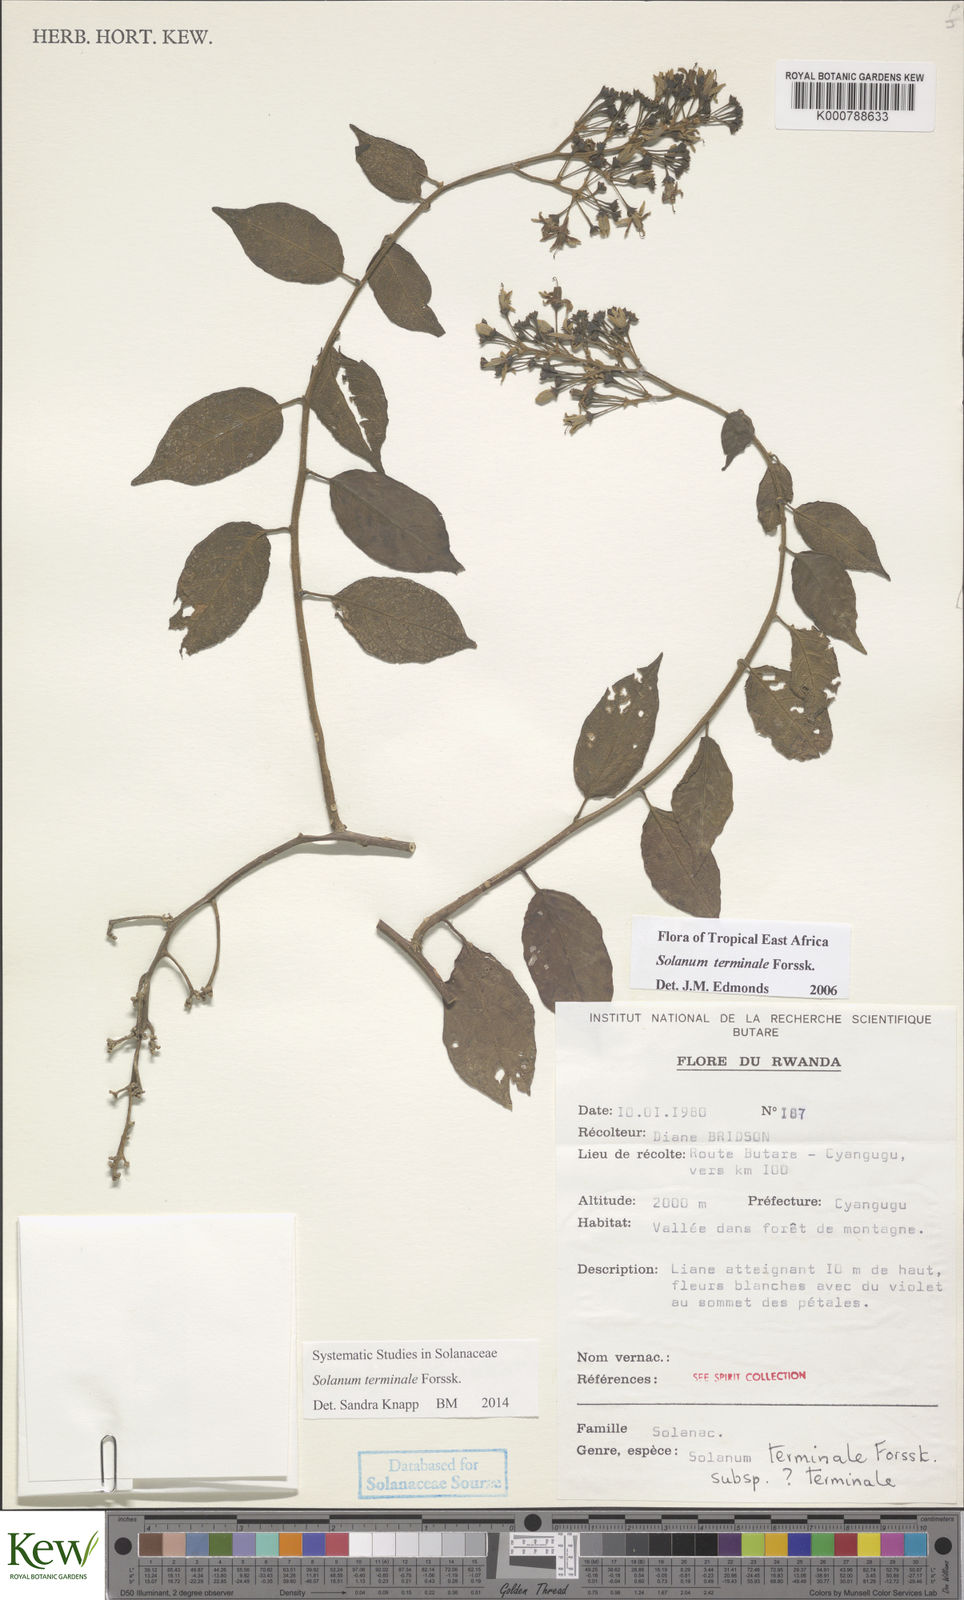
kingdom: Plantae
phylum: Tracheophyta
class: Magnoliopsida
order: Solanales
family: Solanaceae
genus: Solanum
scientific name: Solanum terminale
